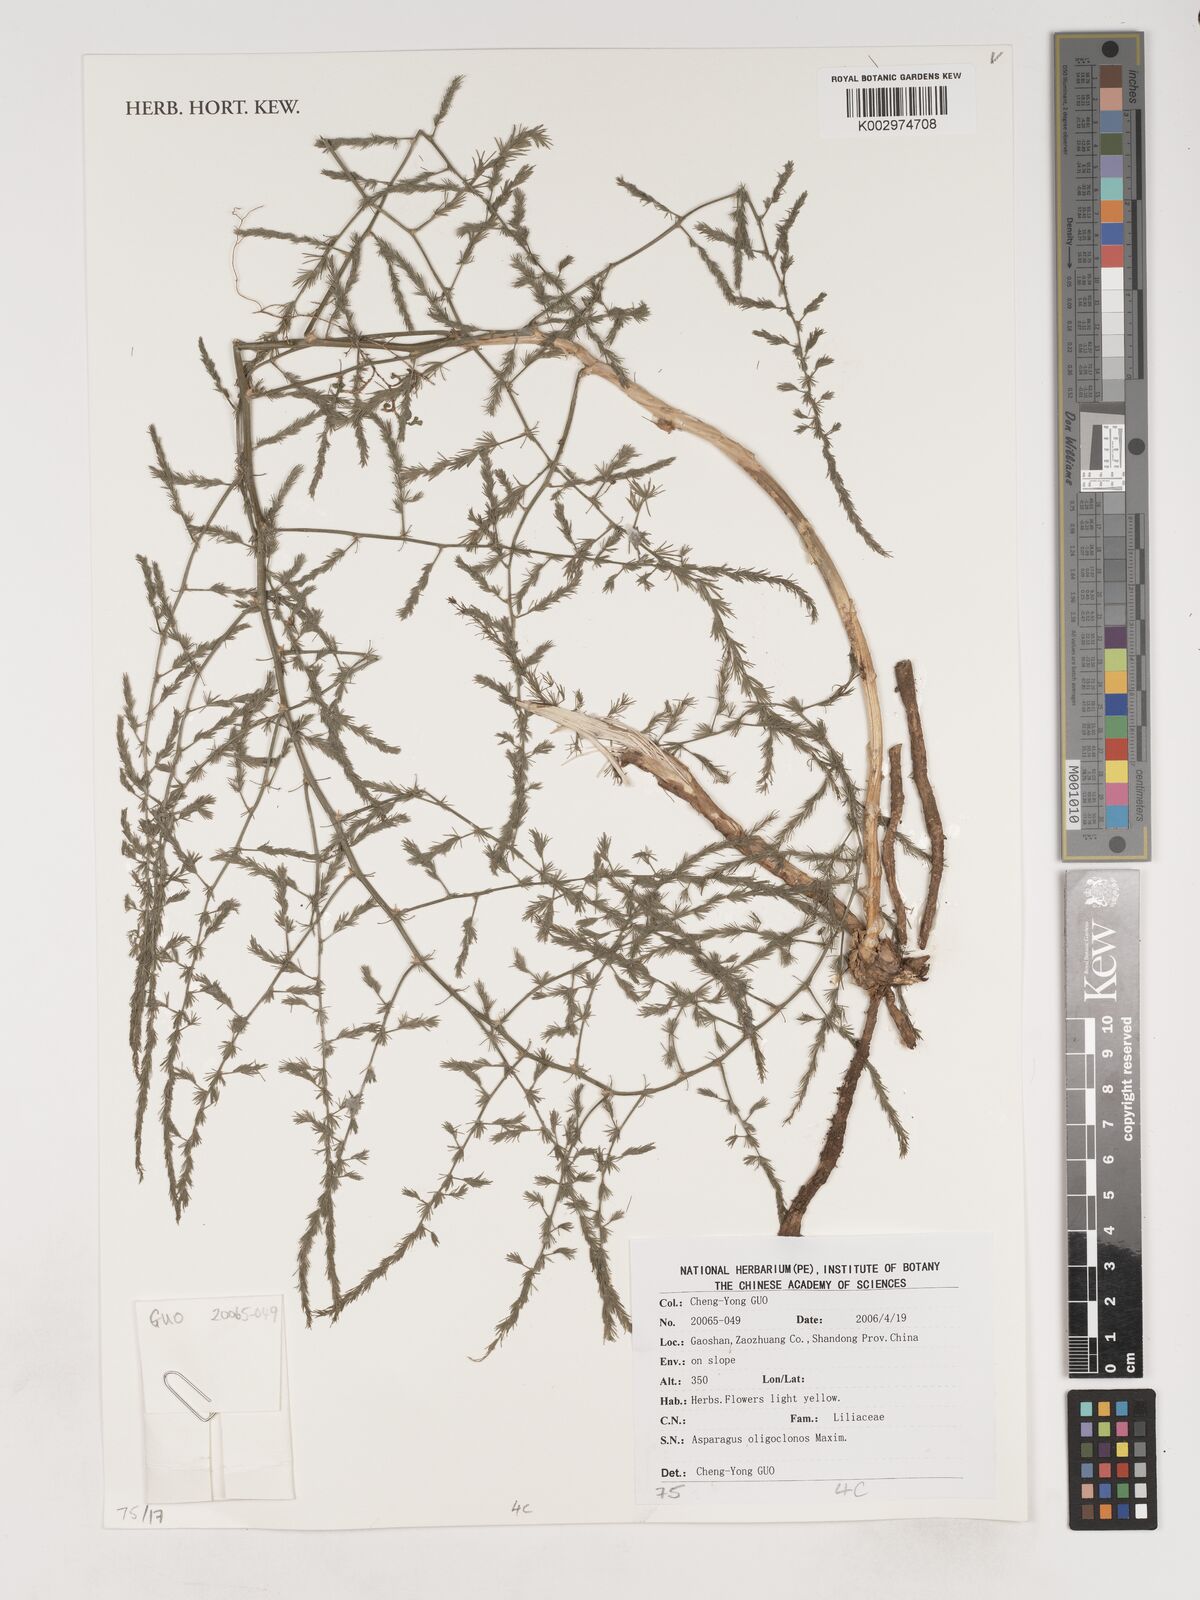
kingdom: Plantae
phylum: Tracheophyta
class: Liliopsida
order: Asparagales
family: Asparagaceae
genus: Asparagus
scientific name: Asparagus oligoclonos
